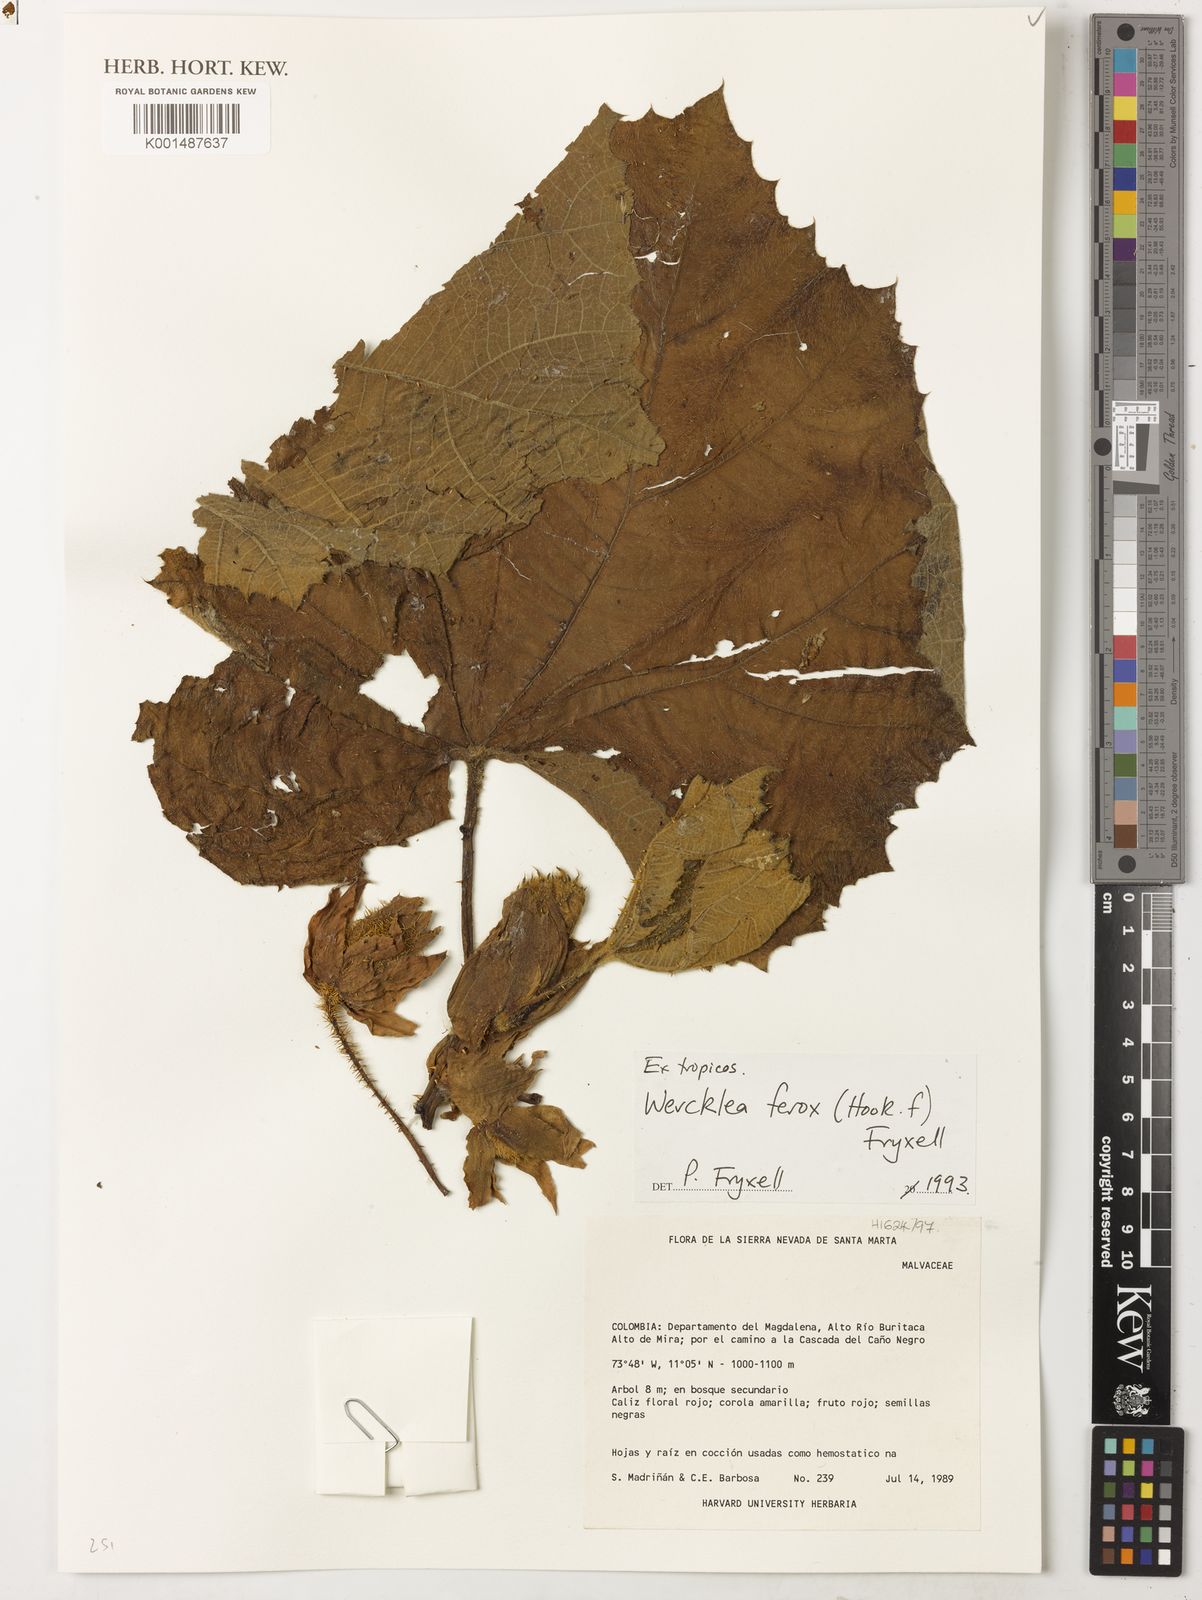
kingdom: Plantae
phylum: Tracheophyta
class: Magnoliopsida
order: Malvales
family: Malvaceae
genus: Wercklea
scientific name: Wercklea ferox
